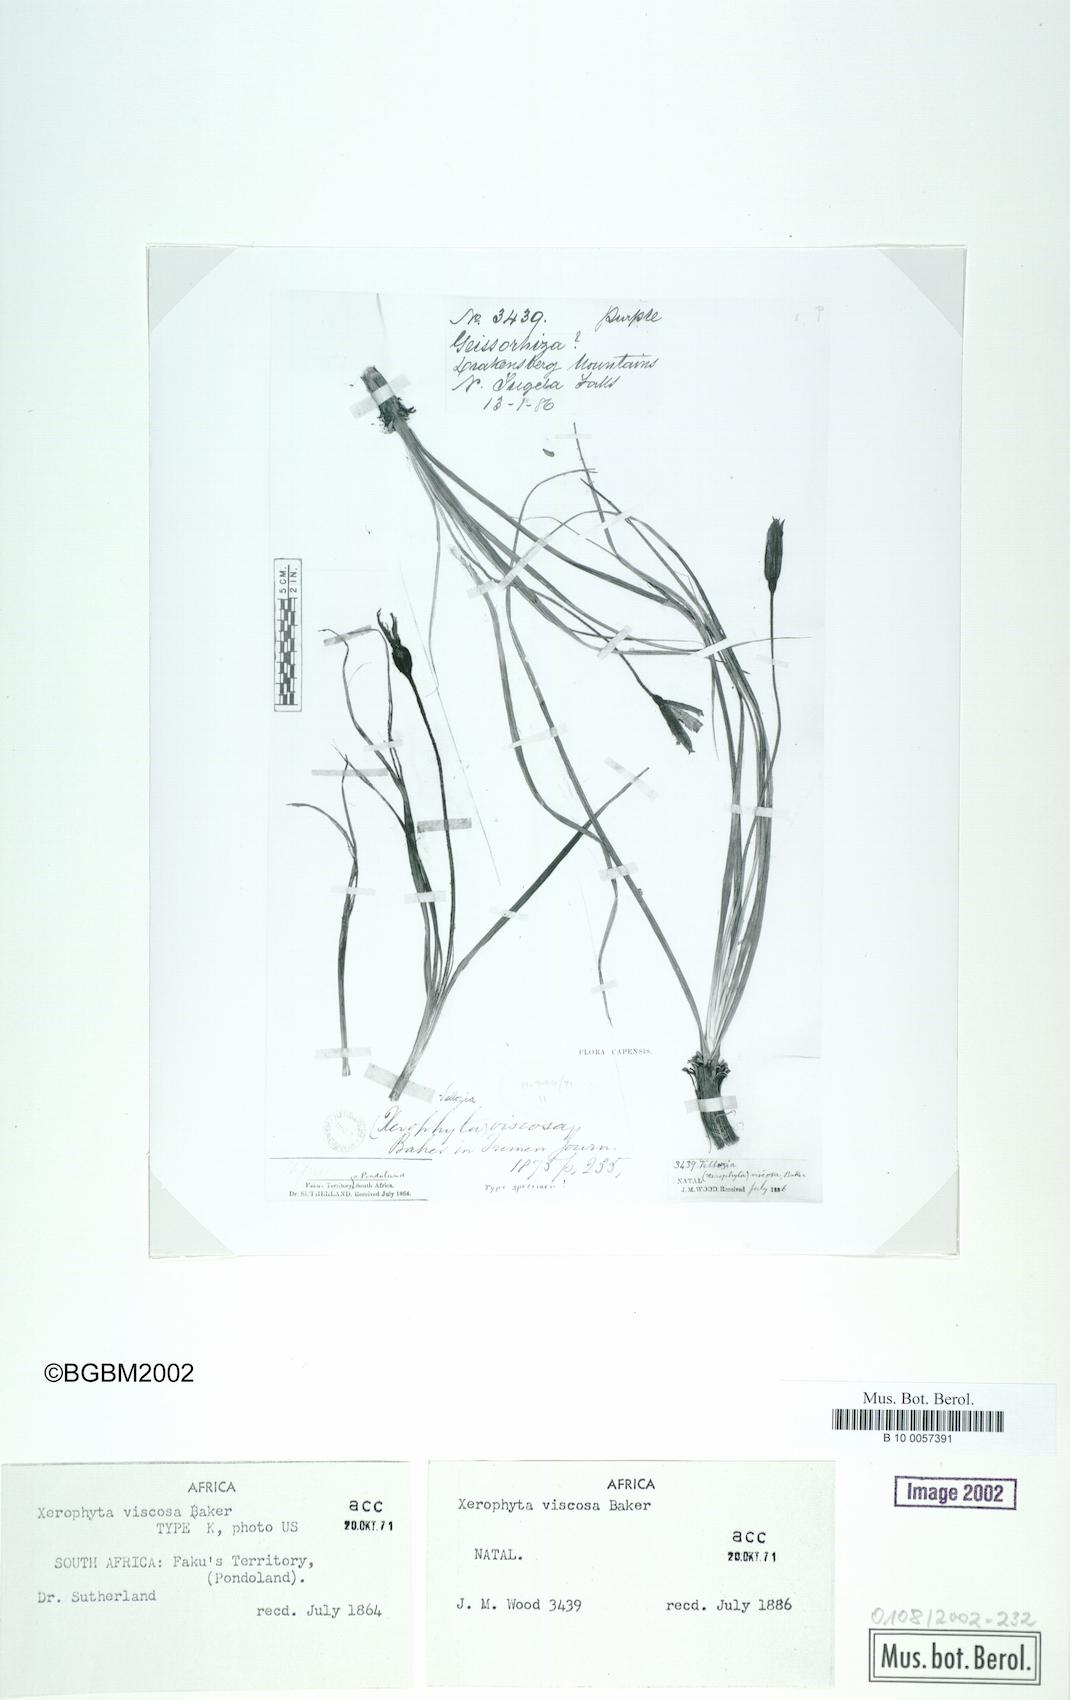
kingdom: Plantae
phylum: Tracheophyta
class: Liliopsida
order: Pandanales
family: Velloziaceae
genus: Xerophyta
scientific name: Xerophyta viscosa
